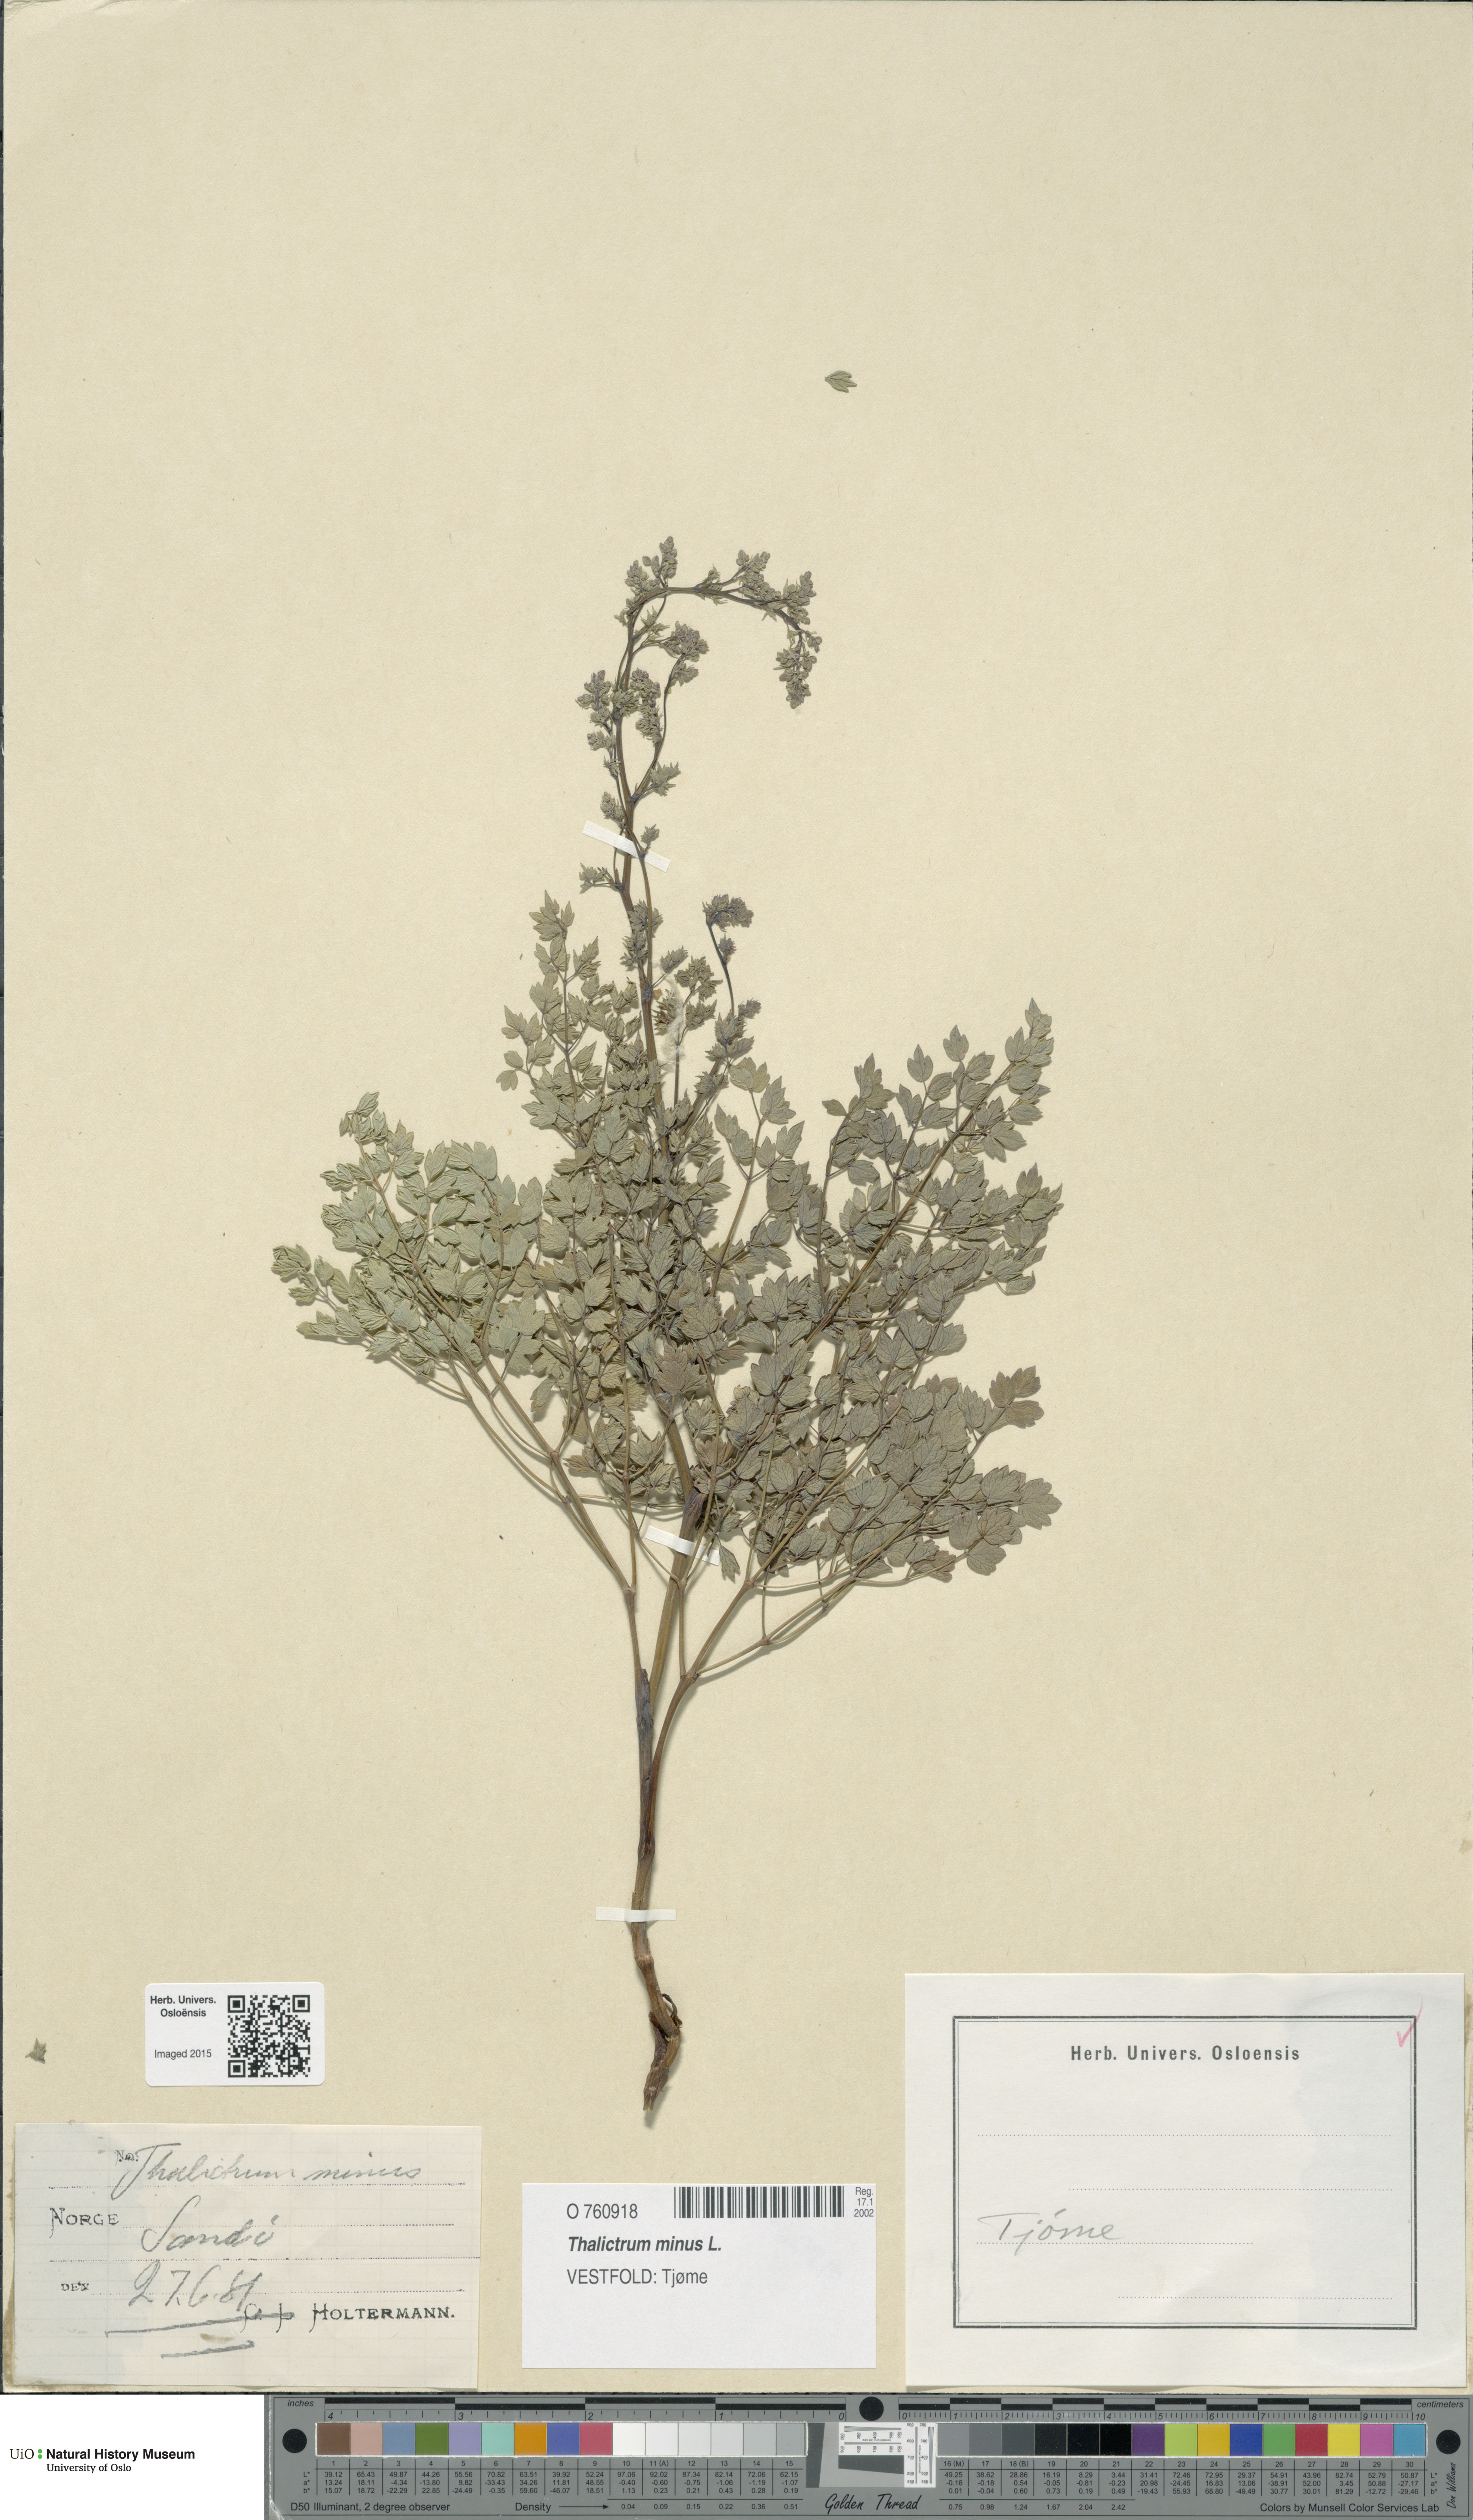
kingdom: Plantae
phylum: Tracheophyta
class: Magnoliopsida
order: Ranunculales
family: Ranunculaceae
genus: Thalictrum
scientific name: Thalictrum minus
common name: Lesser meadow-rue
